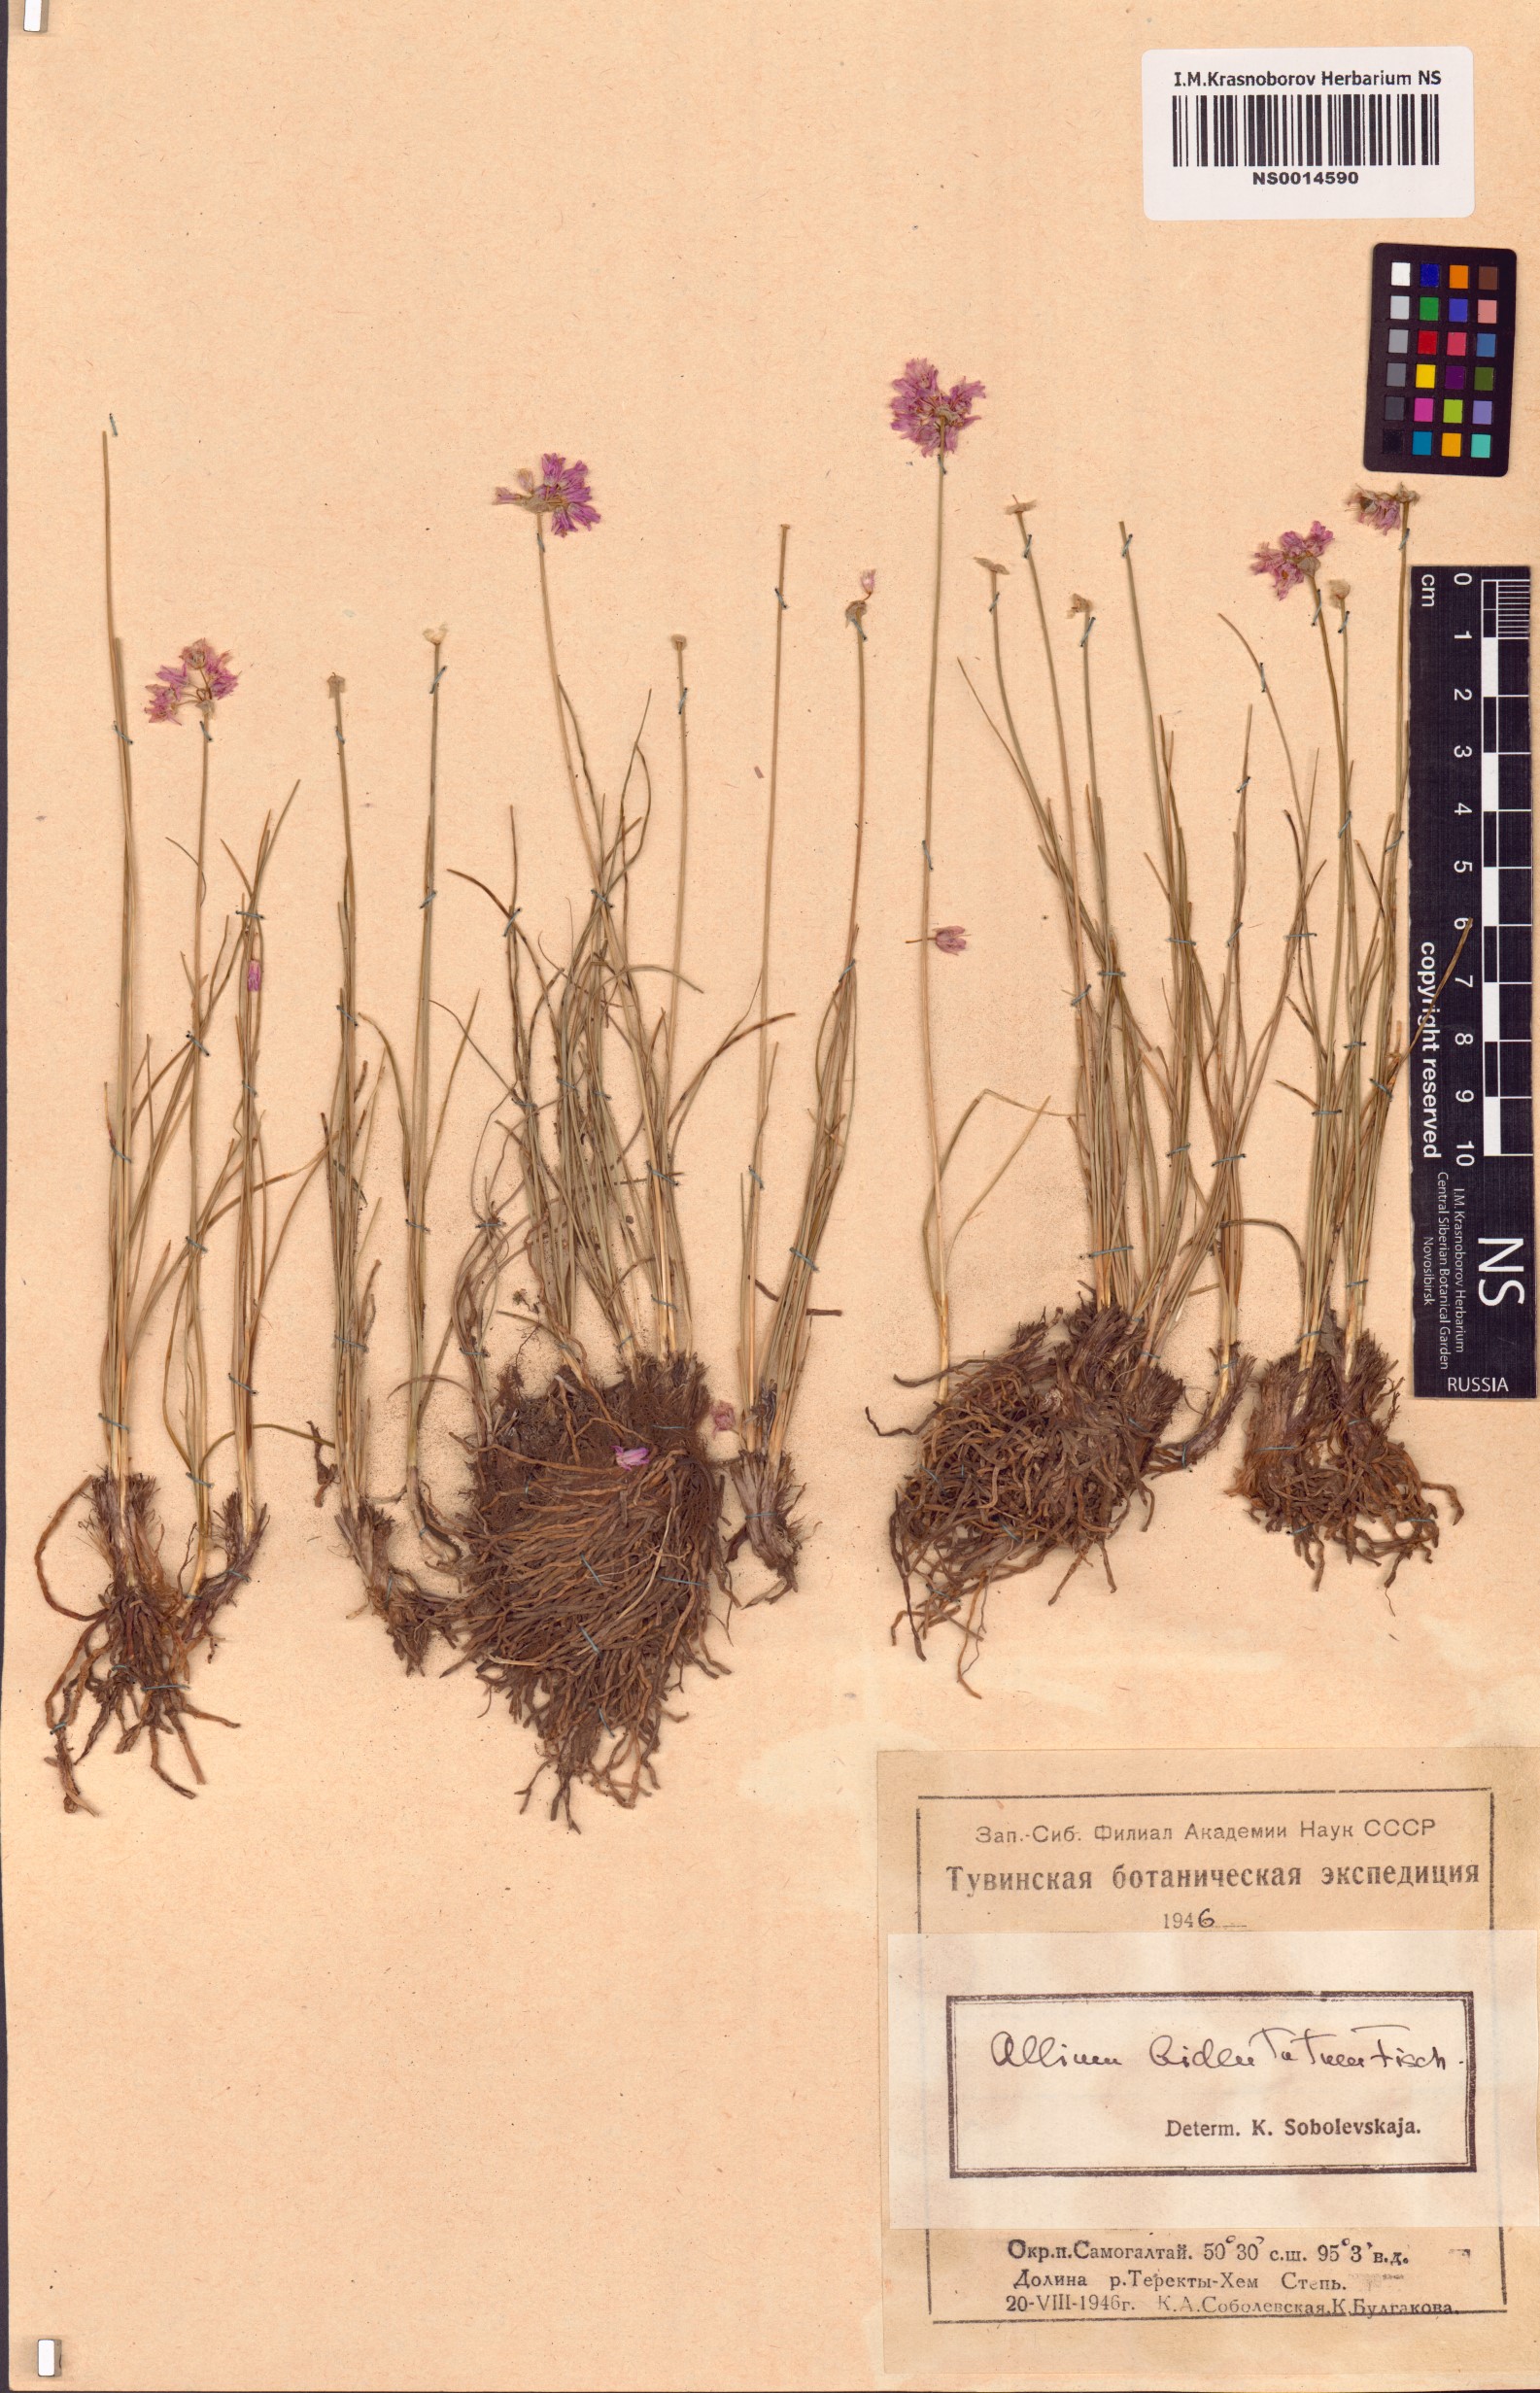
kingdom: Plantae
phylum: Tracheophyta
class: Liliopsida
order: Asparagales
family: Amaryllidaceae
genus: Allium
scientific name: Allium bidentatum
